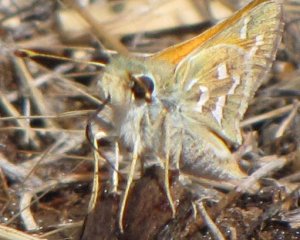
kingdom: Animalia
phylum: Arthropoda
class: Insecta
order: Lepidoptera
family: Hesperiidae
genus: Hesperia
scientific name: Hesperia comma
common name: Western Branded Skipper
